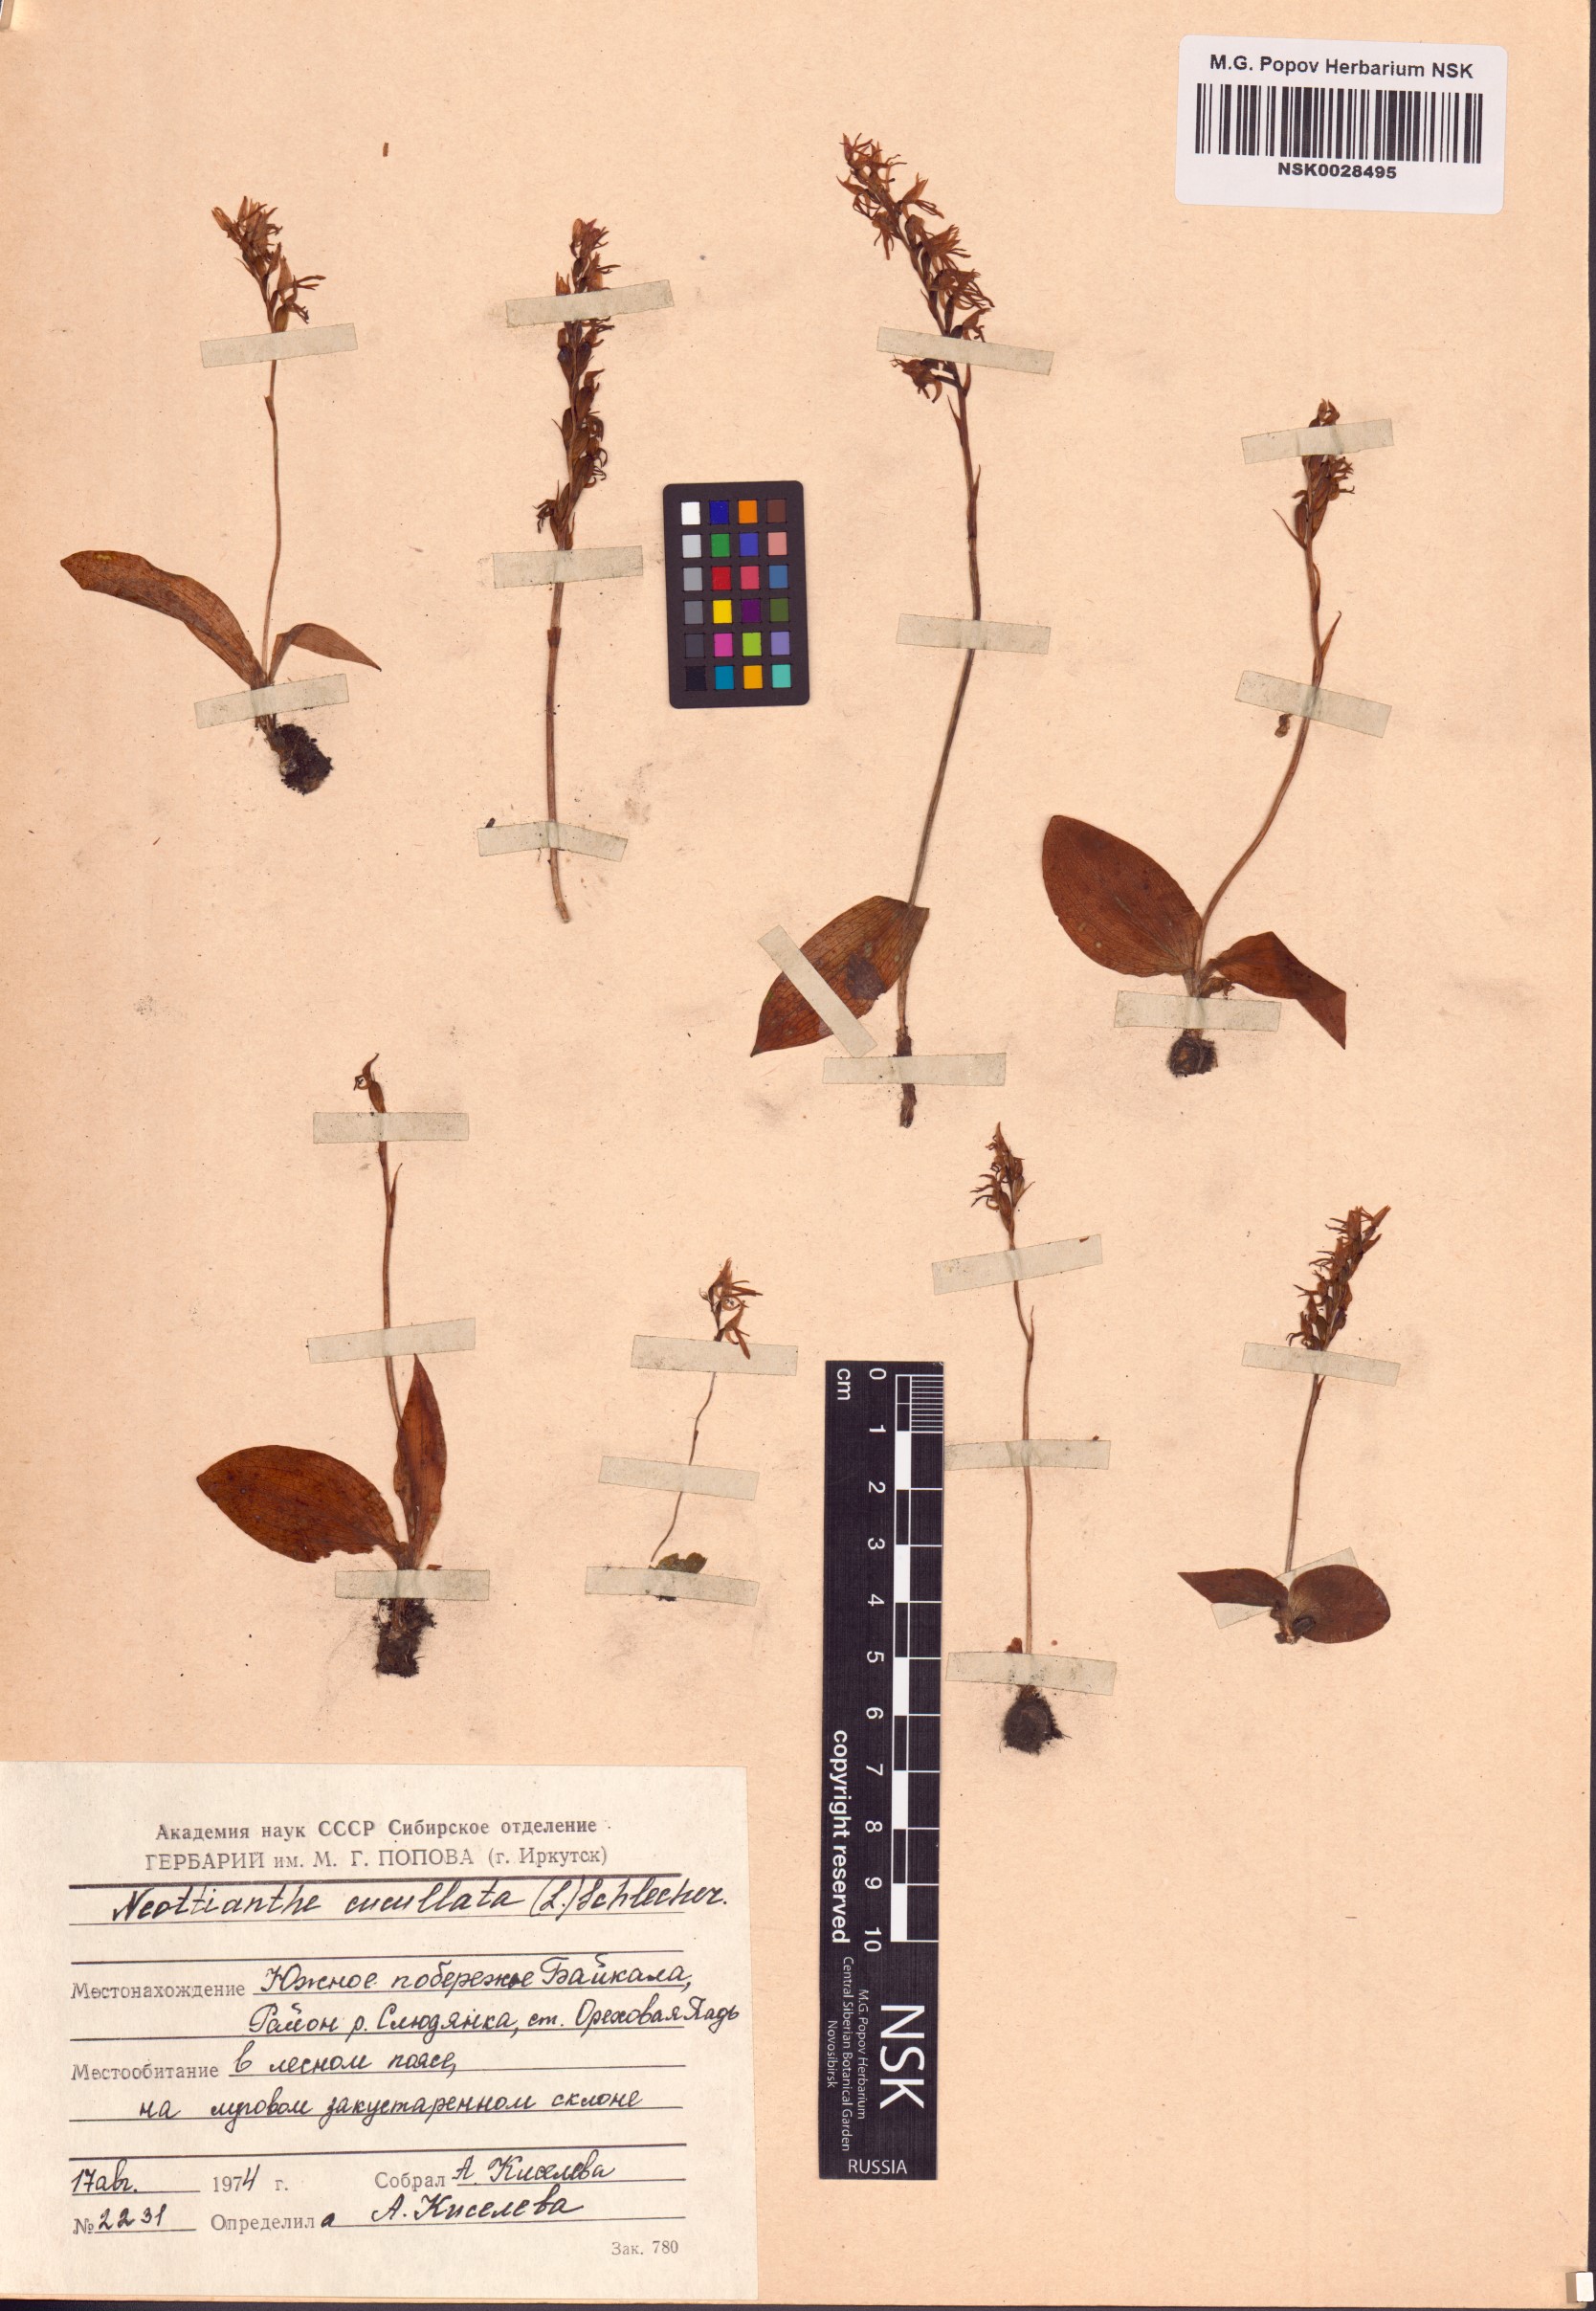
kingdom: Plantae
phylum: Tracheophyta
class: Liliopsida
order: Asparagales
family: Orchidaceae
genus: Hemipilia
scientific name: Hemipilia cucullata
